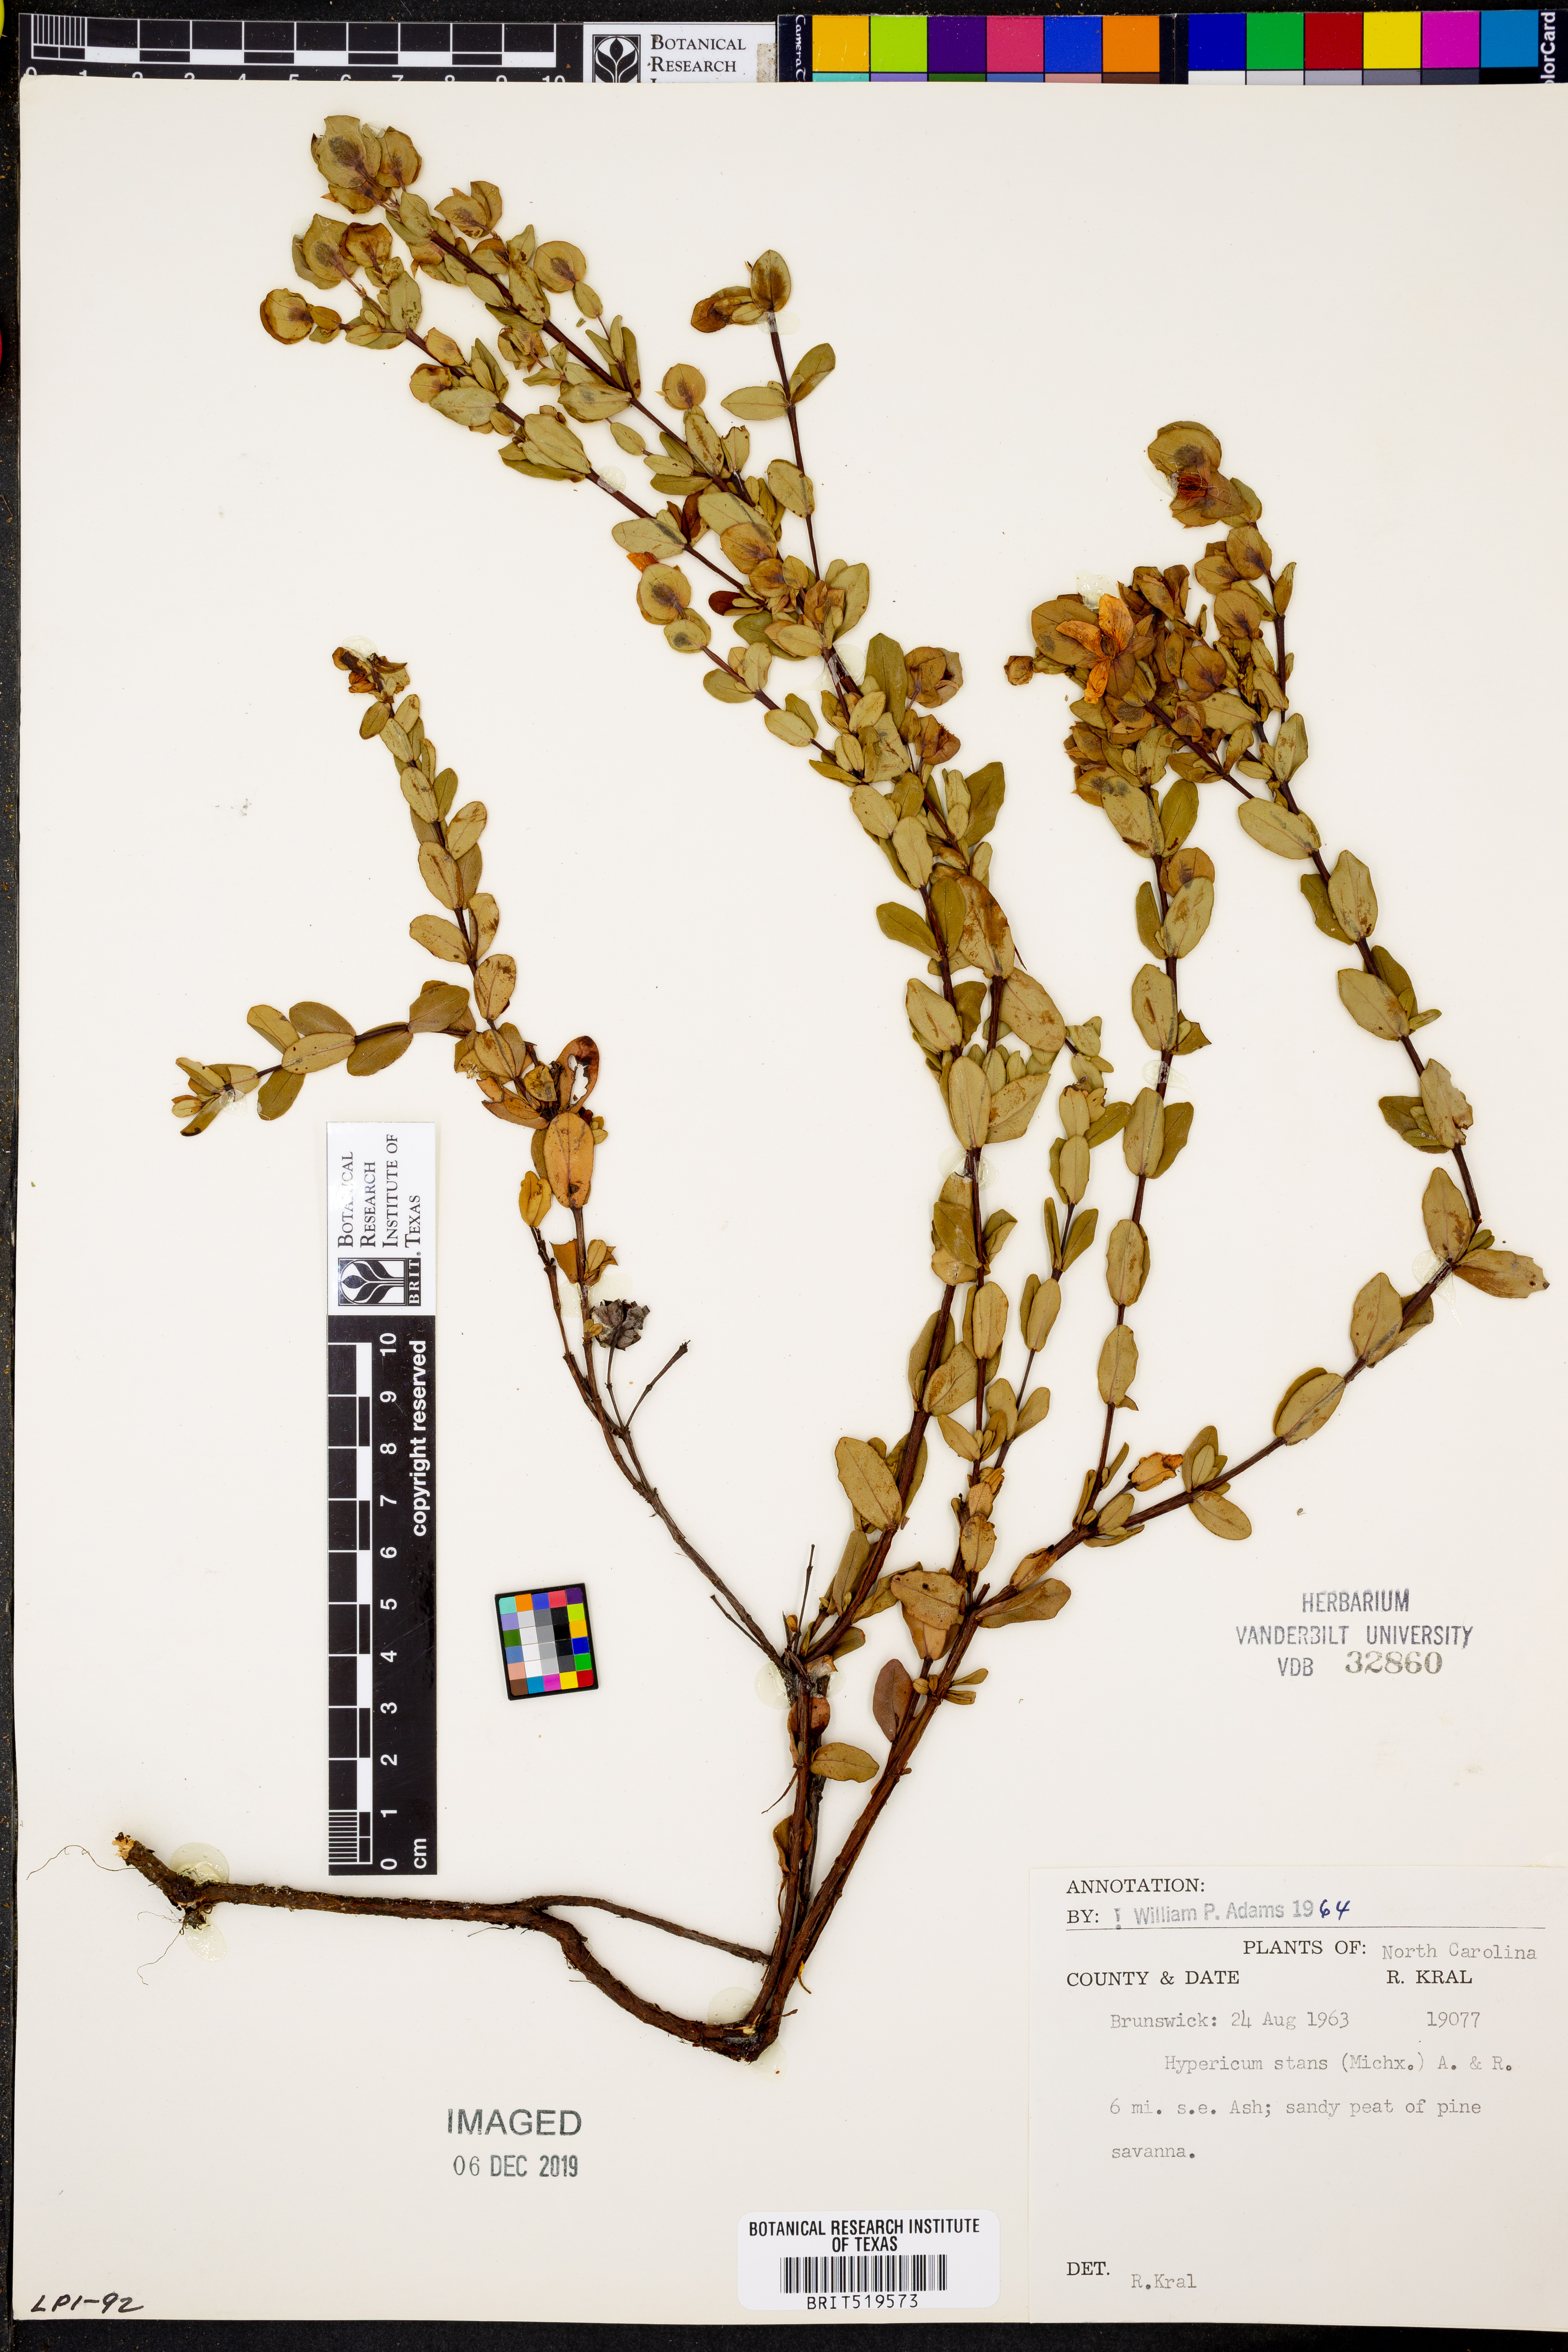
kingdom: Plantae
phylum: Tracheophyta
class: Magnoliopsida
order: Malpighiales
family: Hypericaceae
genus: Hypericum
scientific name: Hypericum crux-andreae
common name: St.-peter's-wort
